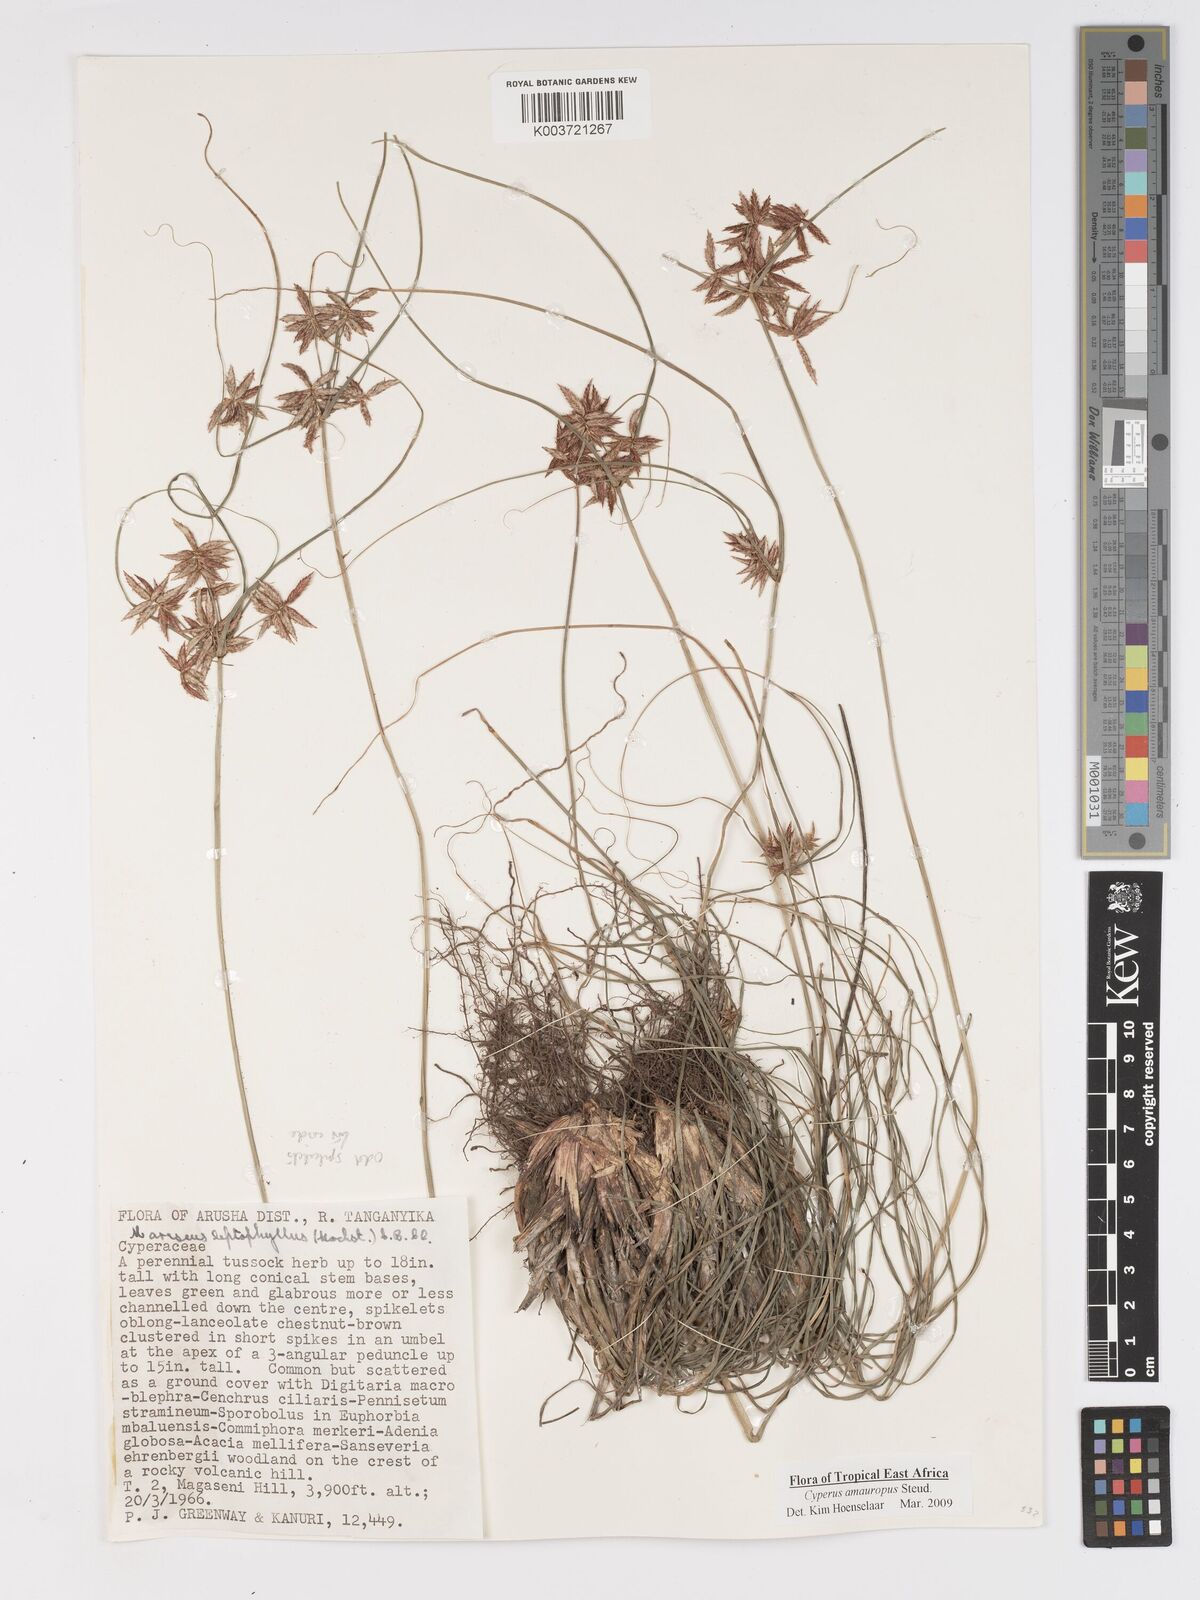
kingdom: Plantae
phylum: Tracheophyta
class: Liliopsida
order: Poales
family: Cyperaceae
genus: Cyperus
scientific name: Cyperus amauropus
